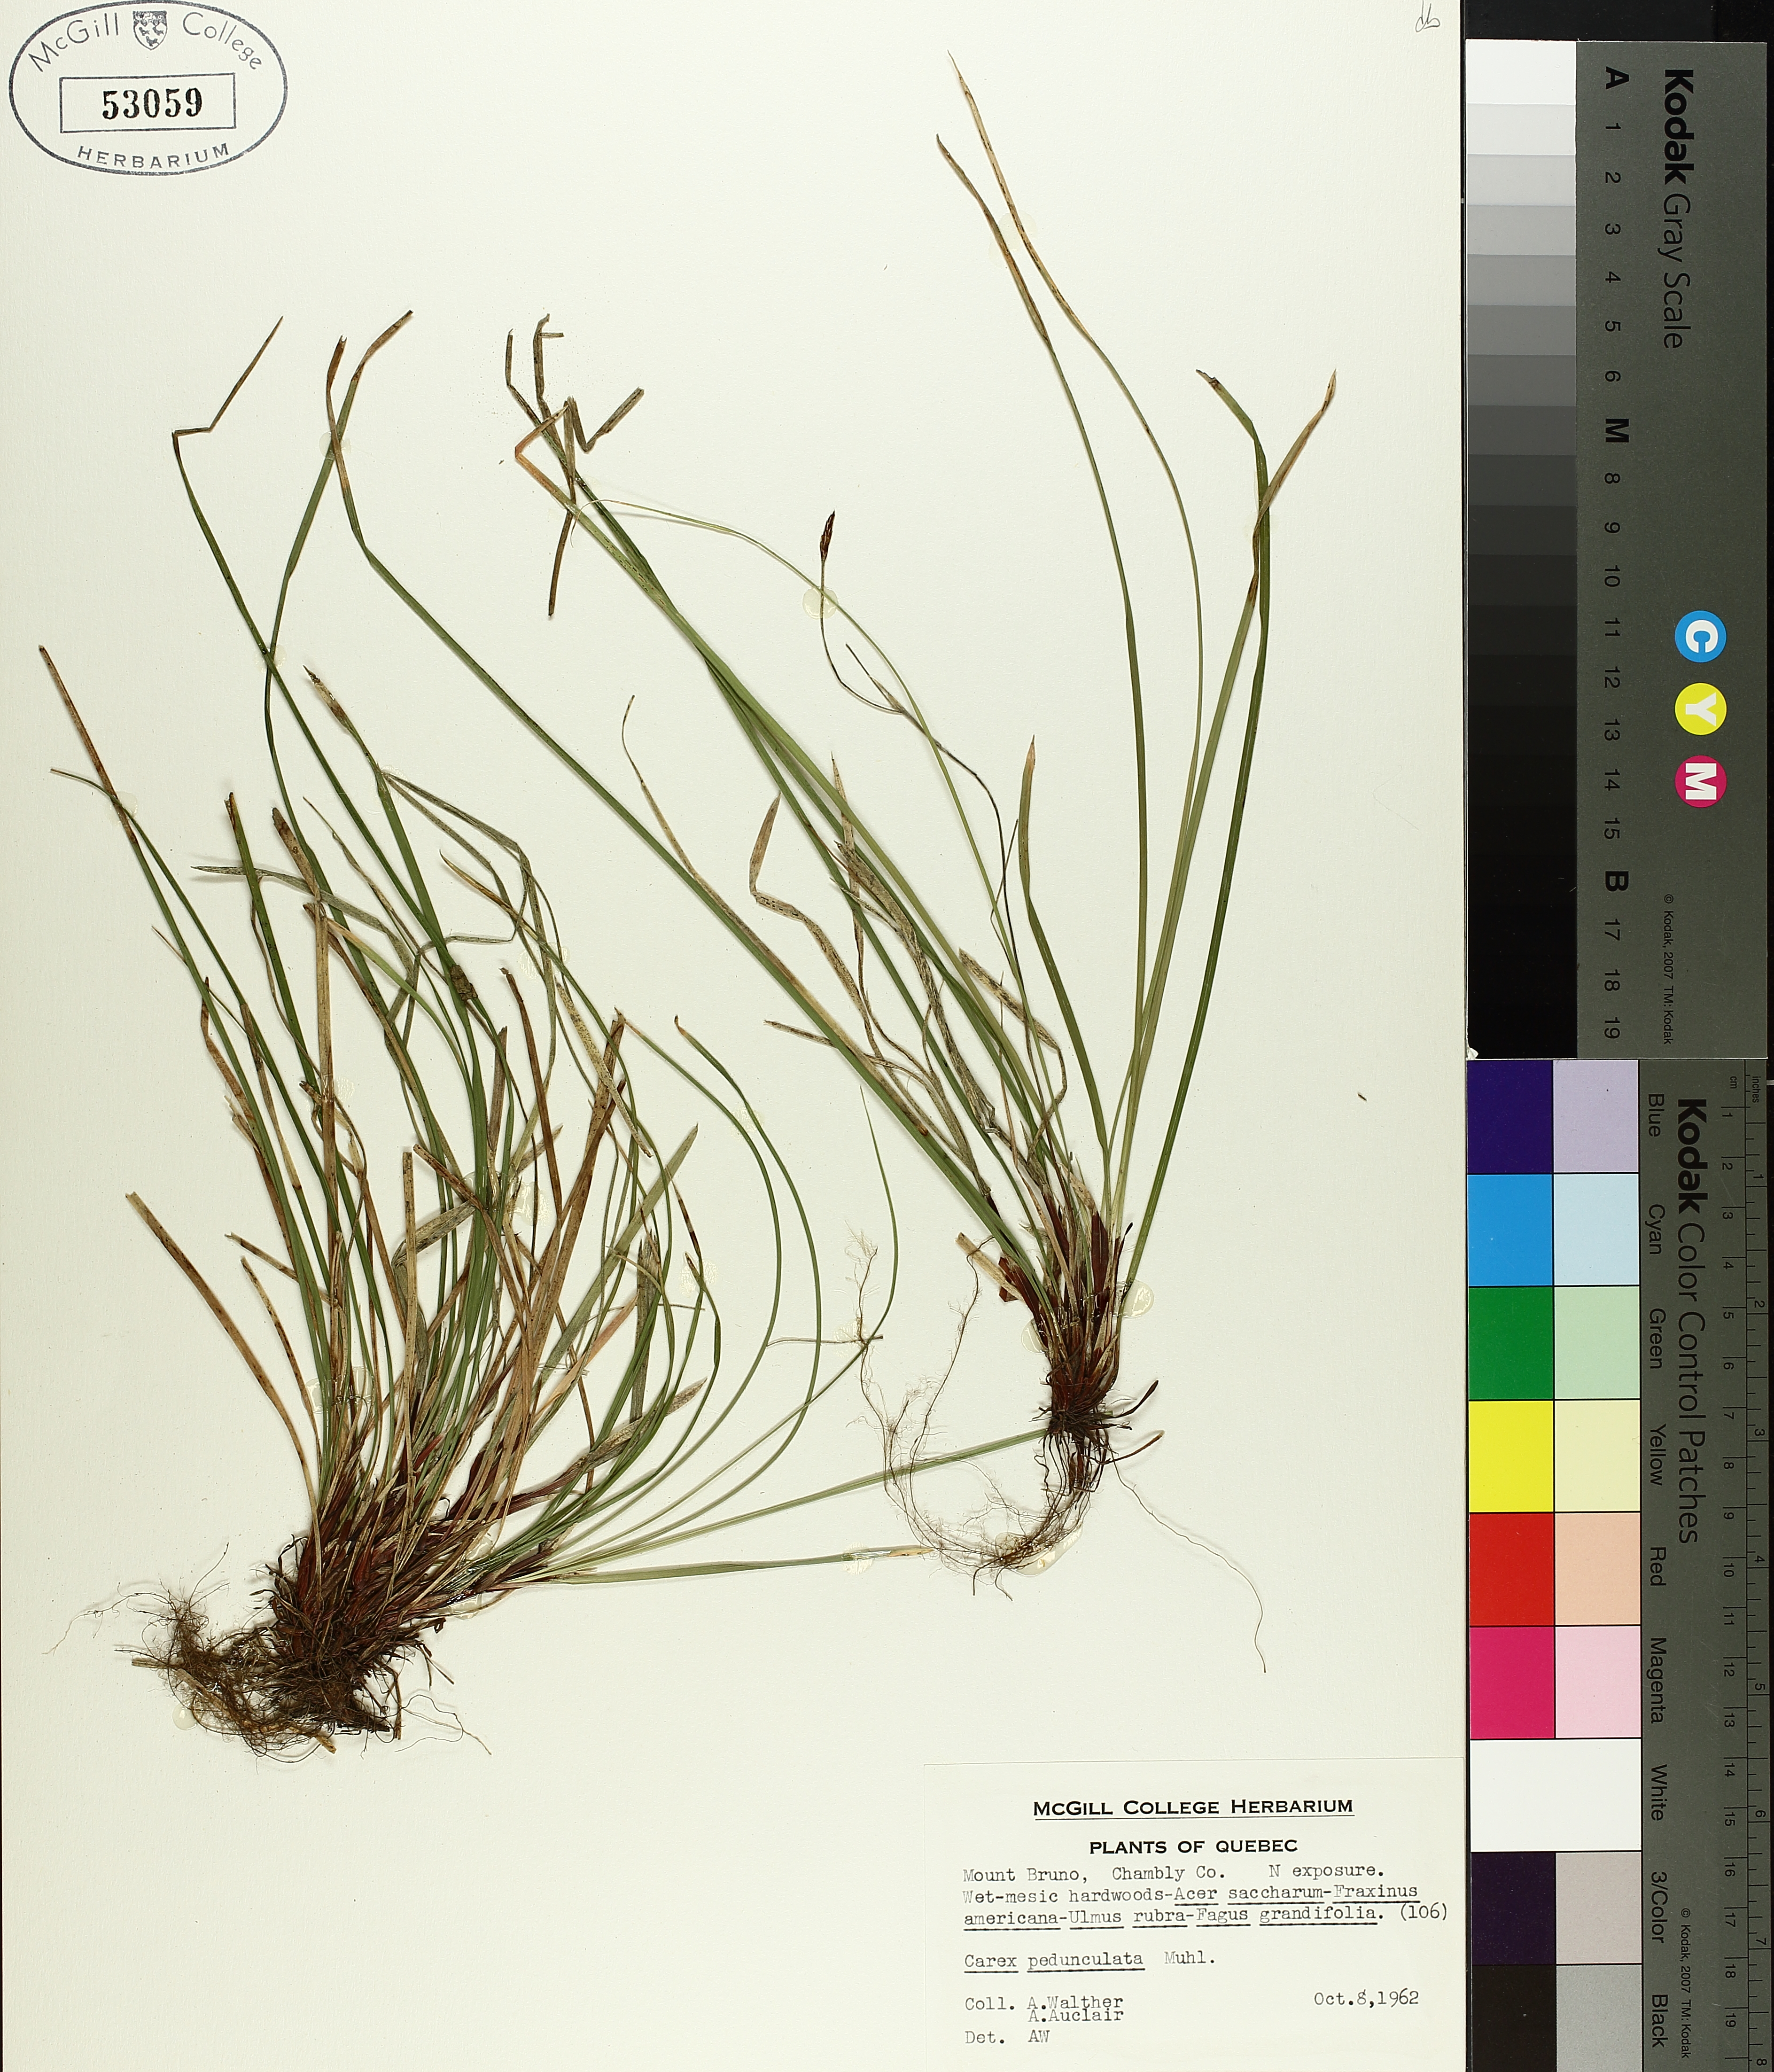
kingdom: Plantae
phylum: Tracheophyta
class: Liliopsida
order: Poales
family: Cyperaceae
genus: Carex
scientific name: Carex pedunculata
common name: Pedunculate sedge
